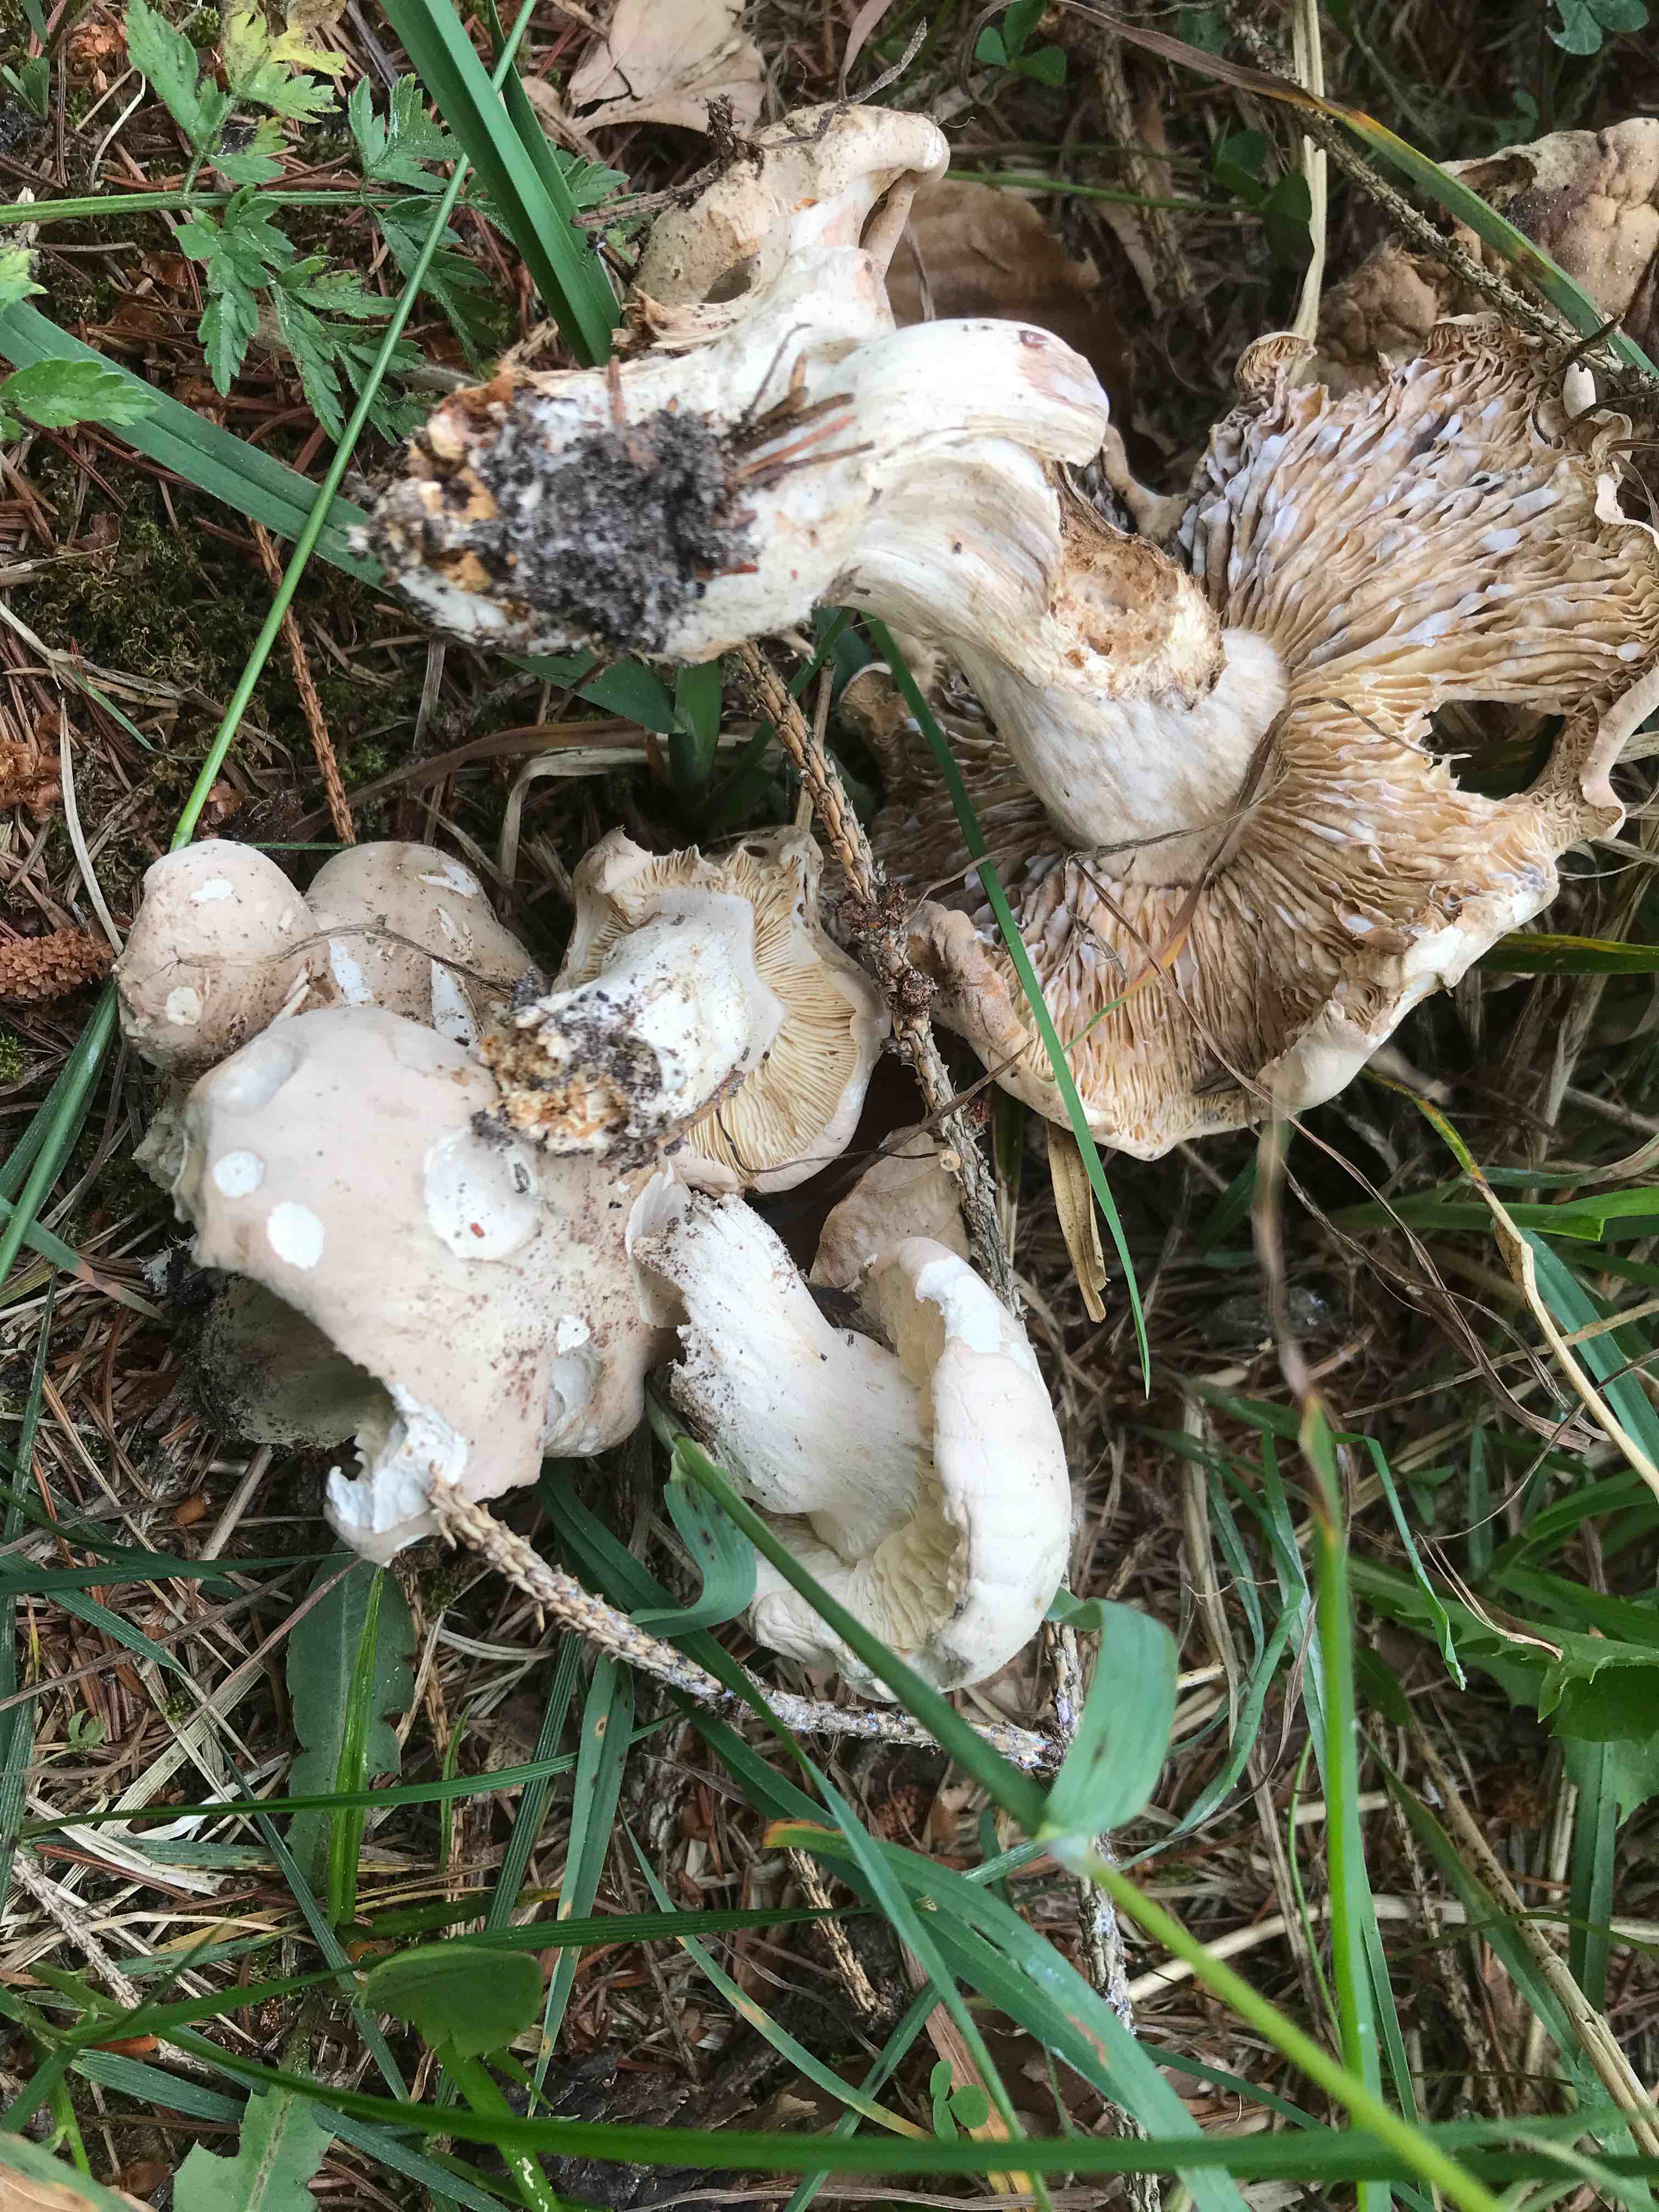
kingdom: Fungi
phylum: Basidiomycota
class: Agaricomycetes
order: Agaricales
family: Lyophyllaceae
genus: Calocybe
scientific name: Calocybe gambosa
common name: vårmusseron
